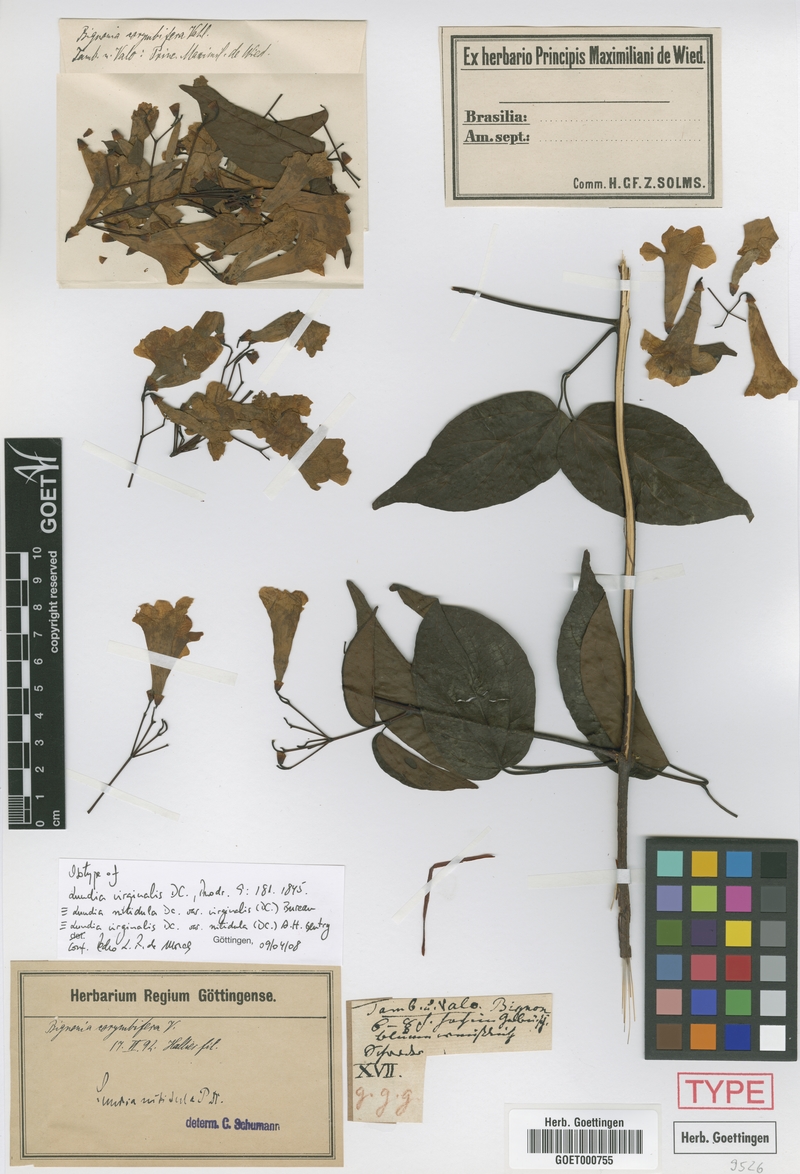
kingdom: Plantae
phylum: Tracheophyta
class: Magnoliopsida
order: Lamiales
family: Bignoniaceae
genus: Lundia
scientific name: Lundia virginalis
